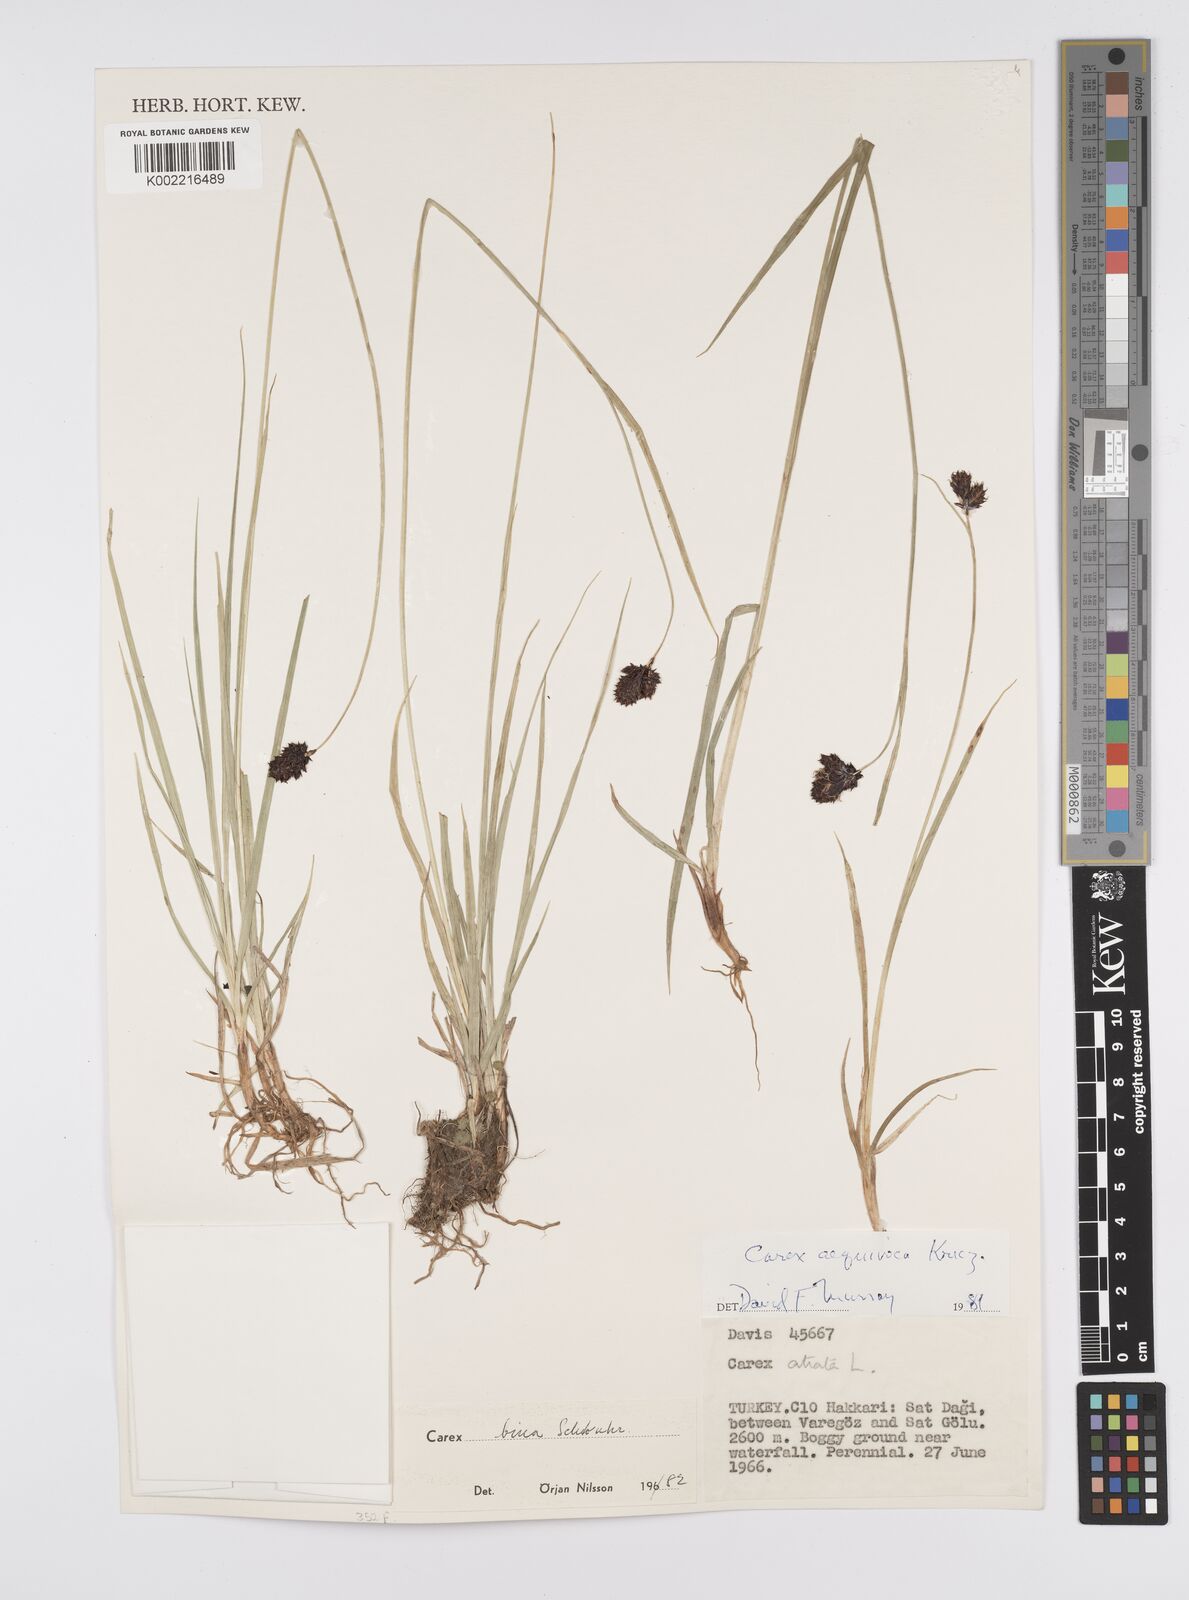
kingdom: Plantae
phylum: Tracheophyta
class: Liliopsida
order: Poales
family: Cyperaceae
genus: Carex
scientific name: Carex parviflora
